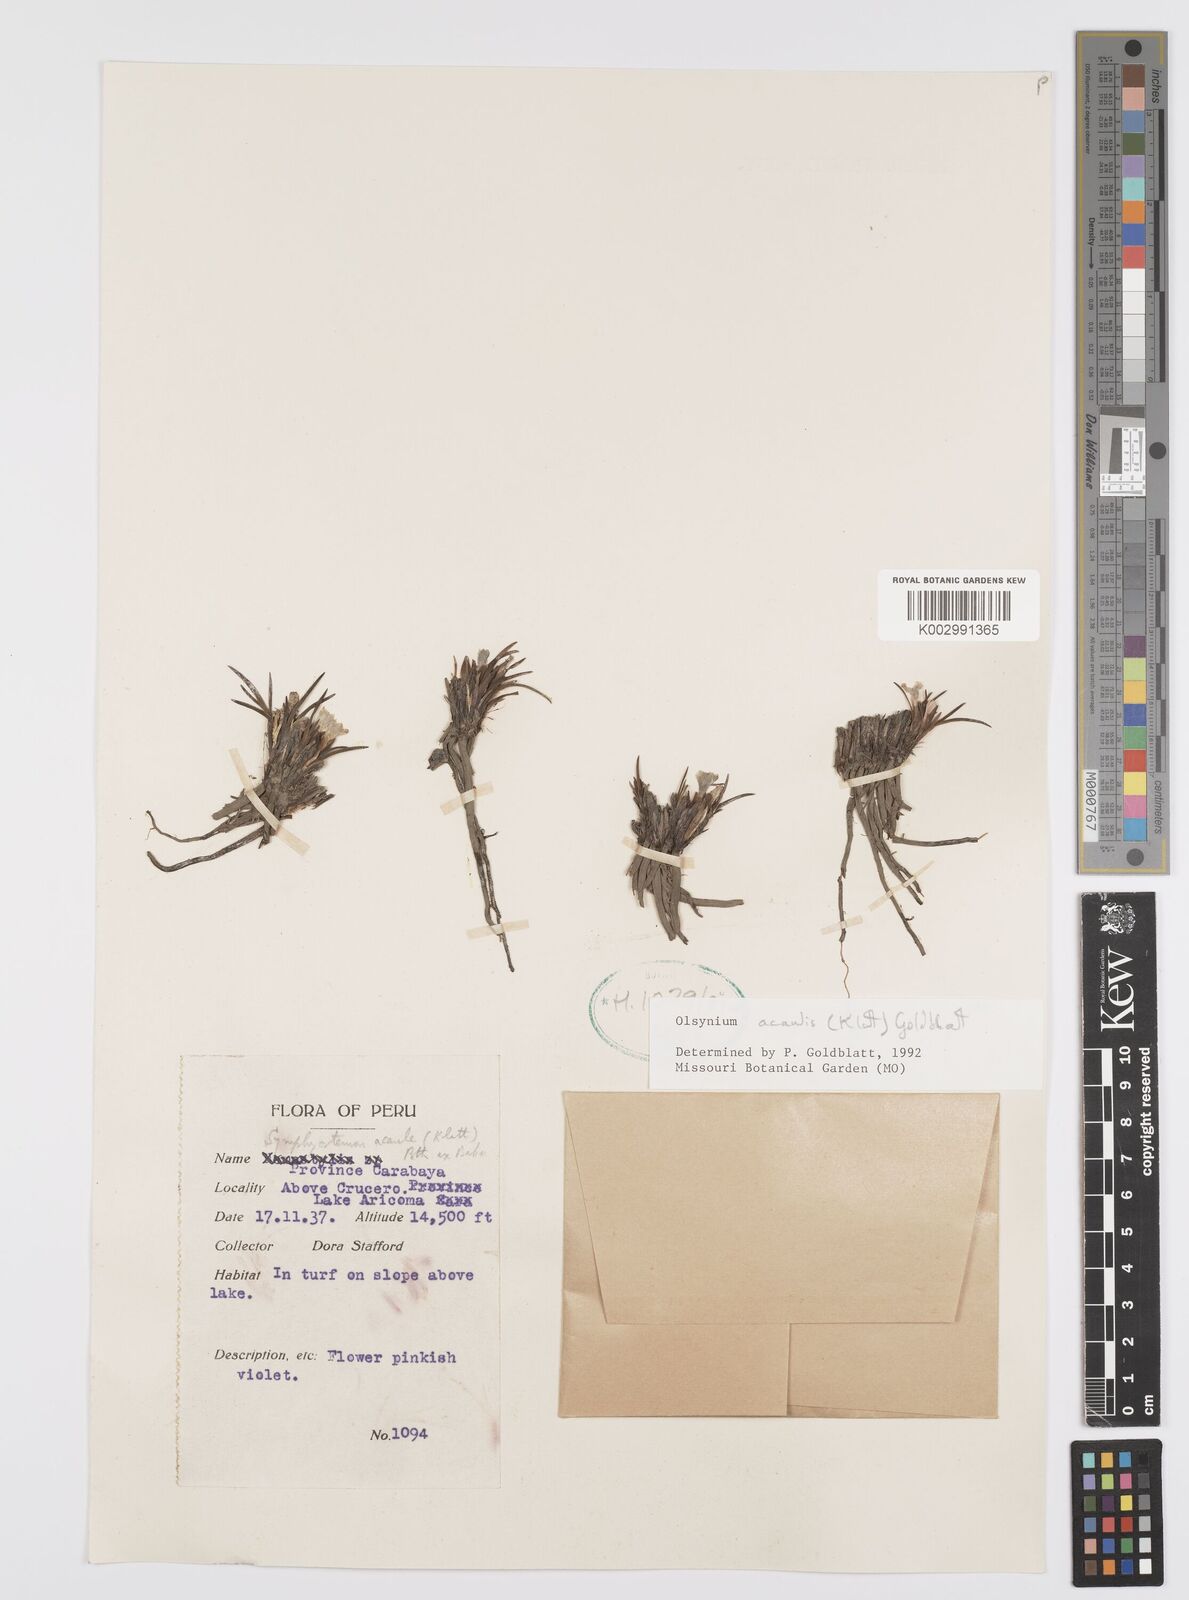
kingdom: Plantae
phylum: Tracheophyta
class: Liliopsida
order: Asparagales
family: Iridaceae
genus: Olsynium
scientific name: Olsynium acaule
